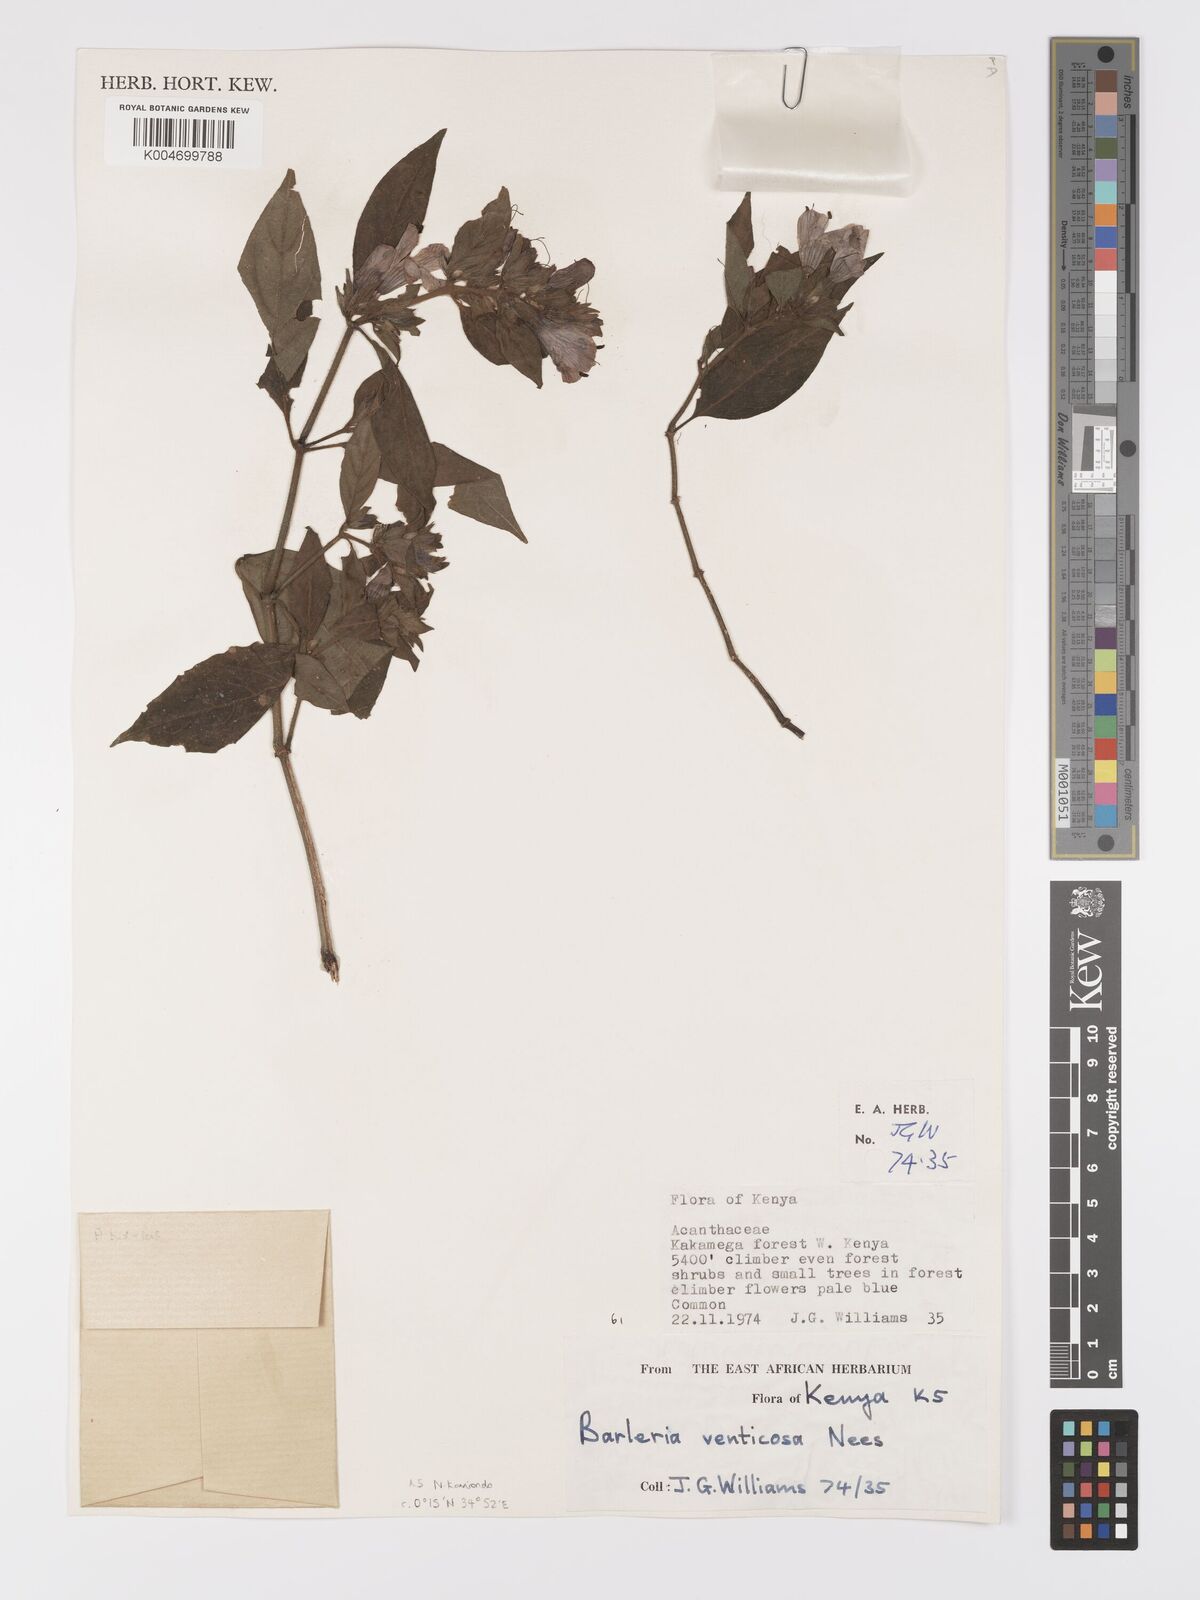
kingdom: Plantae
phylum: Tracheophyta
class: Magnoliopsida
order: Lamiales
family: Acanthaceae
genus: Barleria
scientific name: Barleria ventricosa
